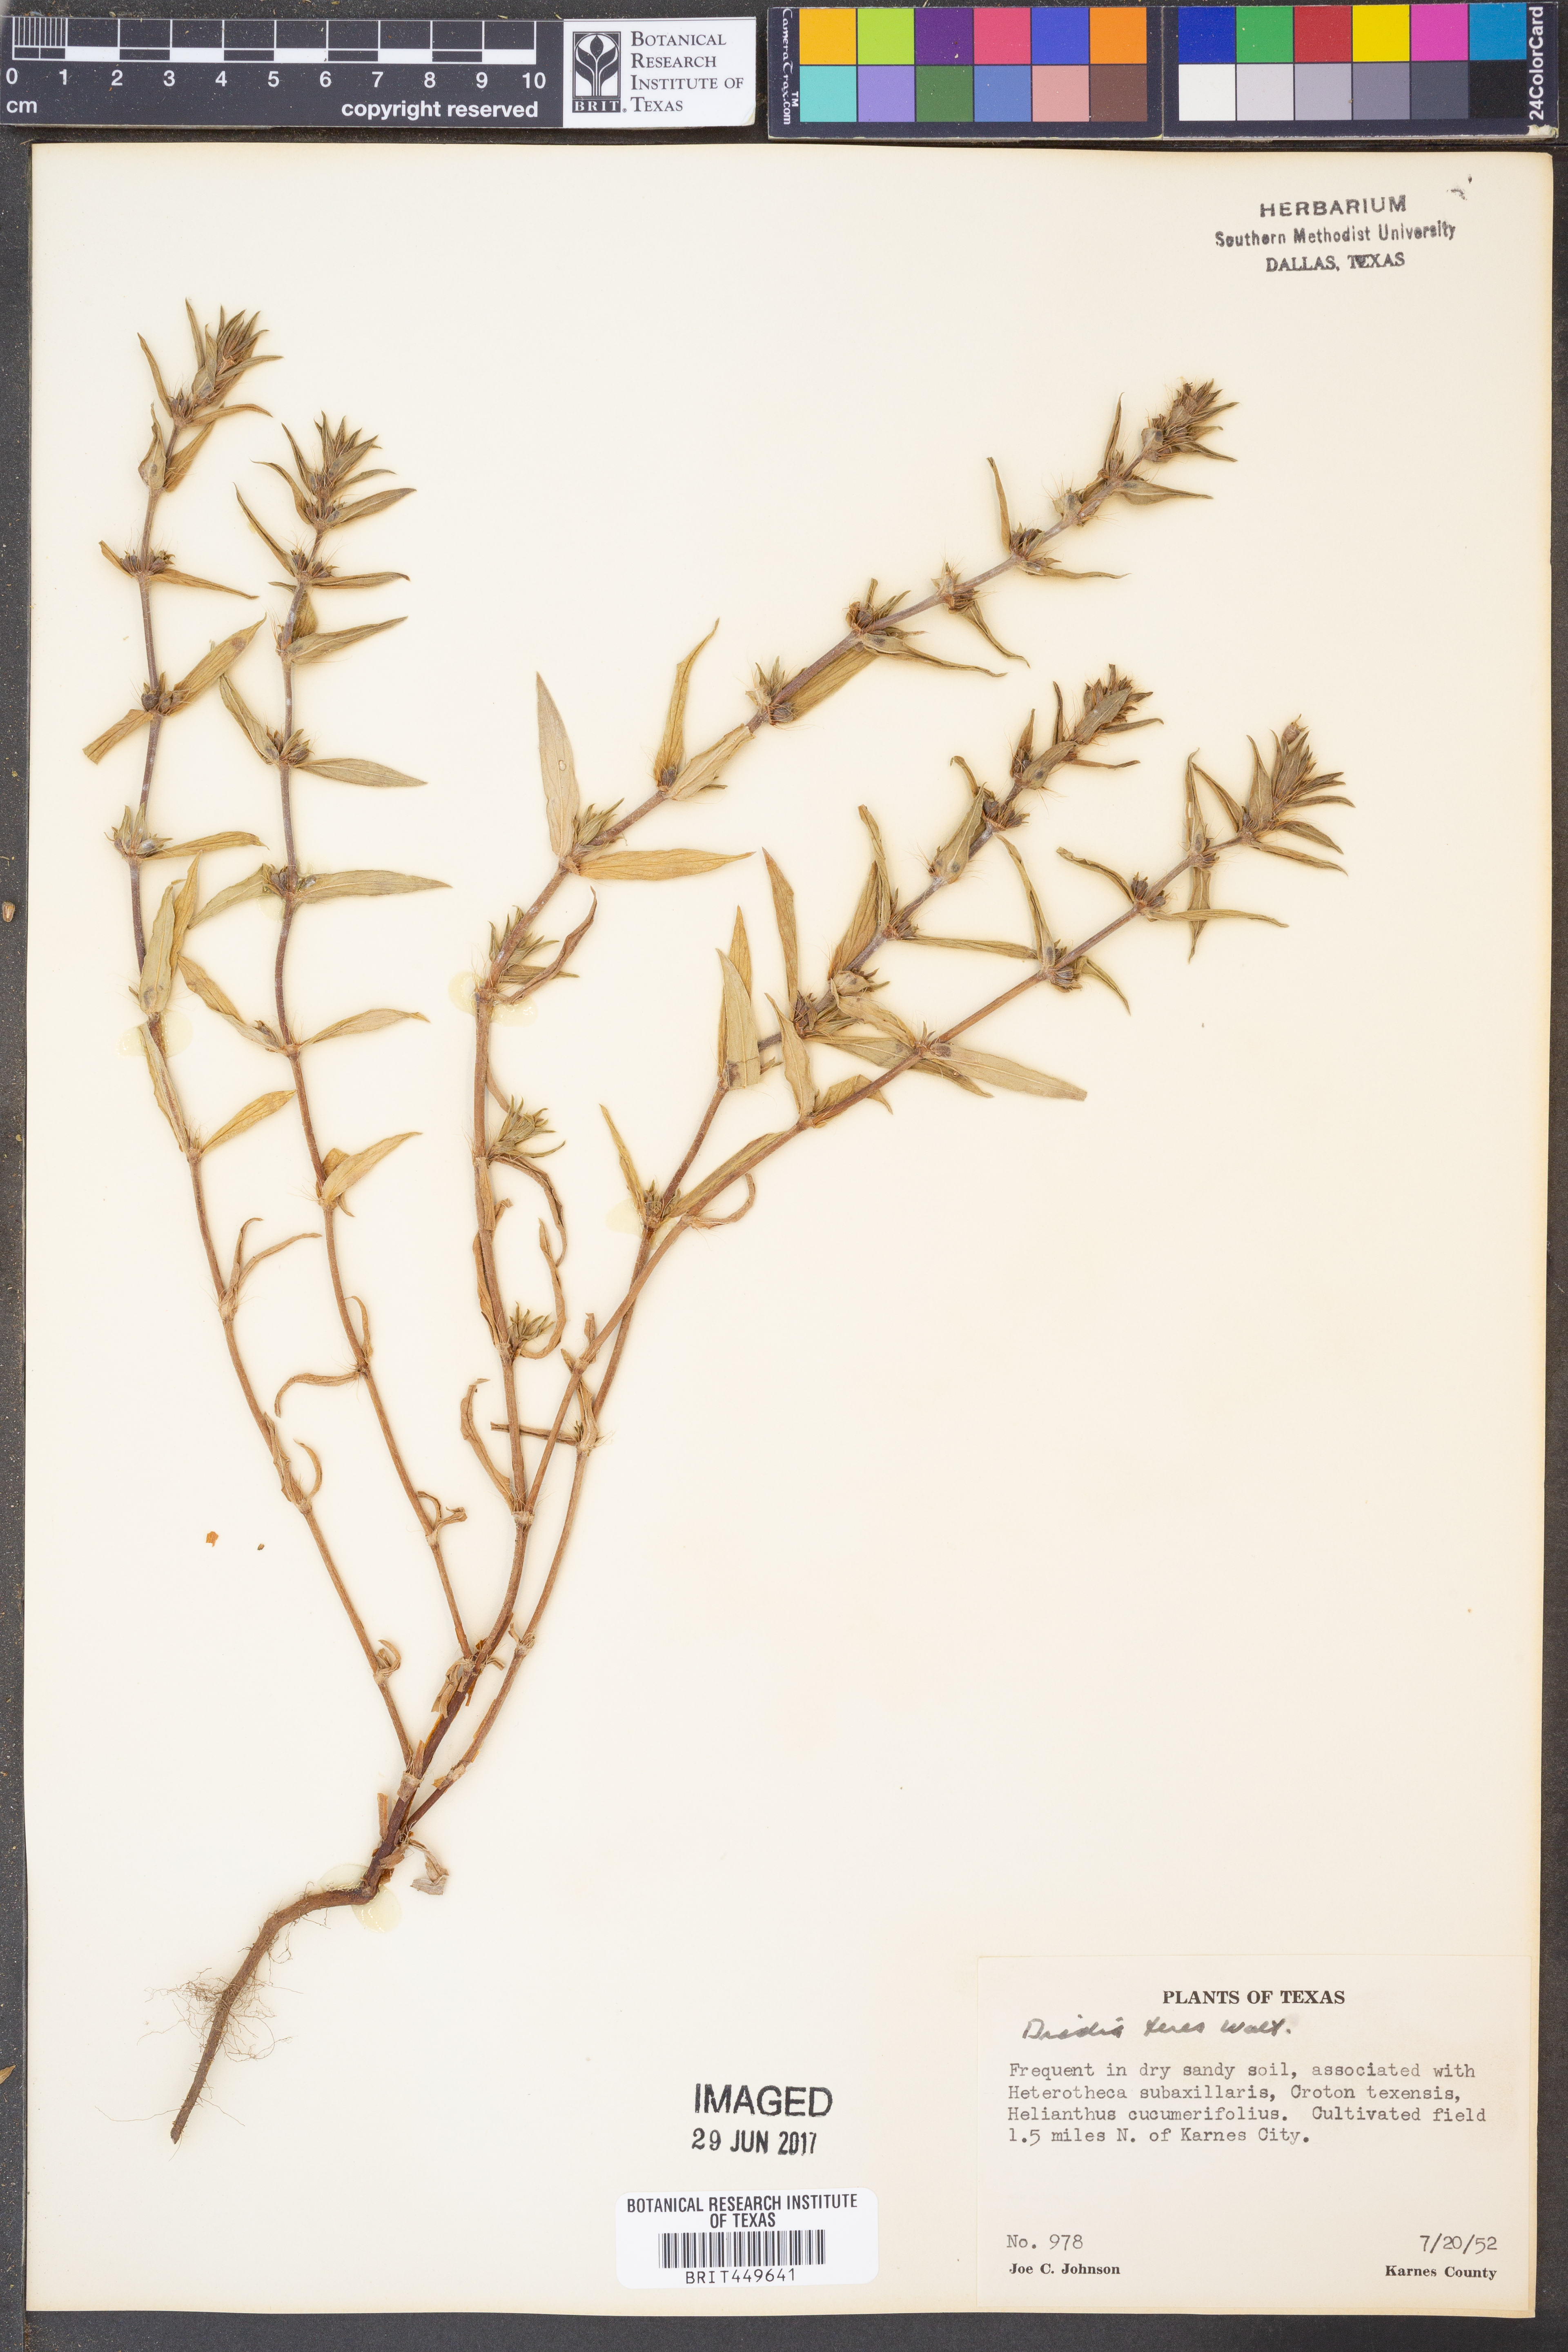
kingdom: Plantae
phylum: Tracheophyta
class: Magnoliopsida
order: Gentianales
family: Rubiaceae
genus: Hexasepalum
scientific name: Hexasepalum teres
